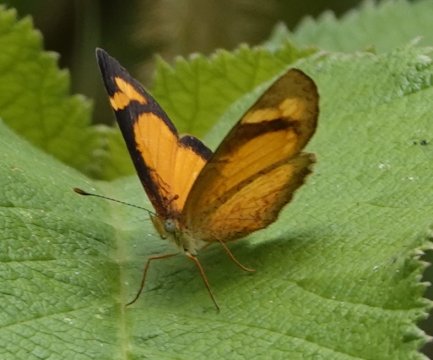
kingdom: Animalia
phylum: Arthropoda
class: Insecta
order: Lepidoptera
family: Nymphalidae
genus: Tegosa
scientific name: Tegosa anieta
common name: Black-bordered Crescent
